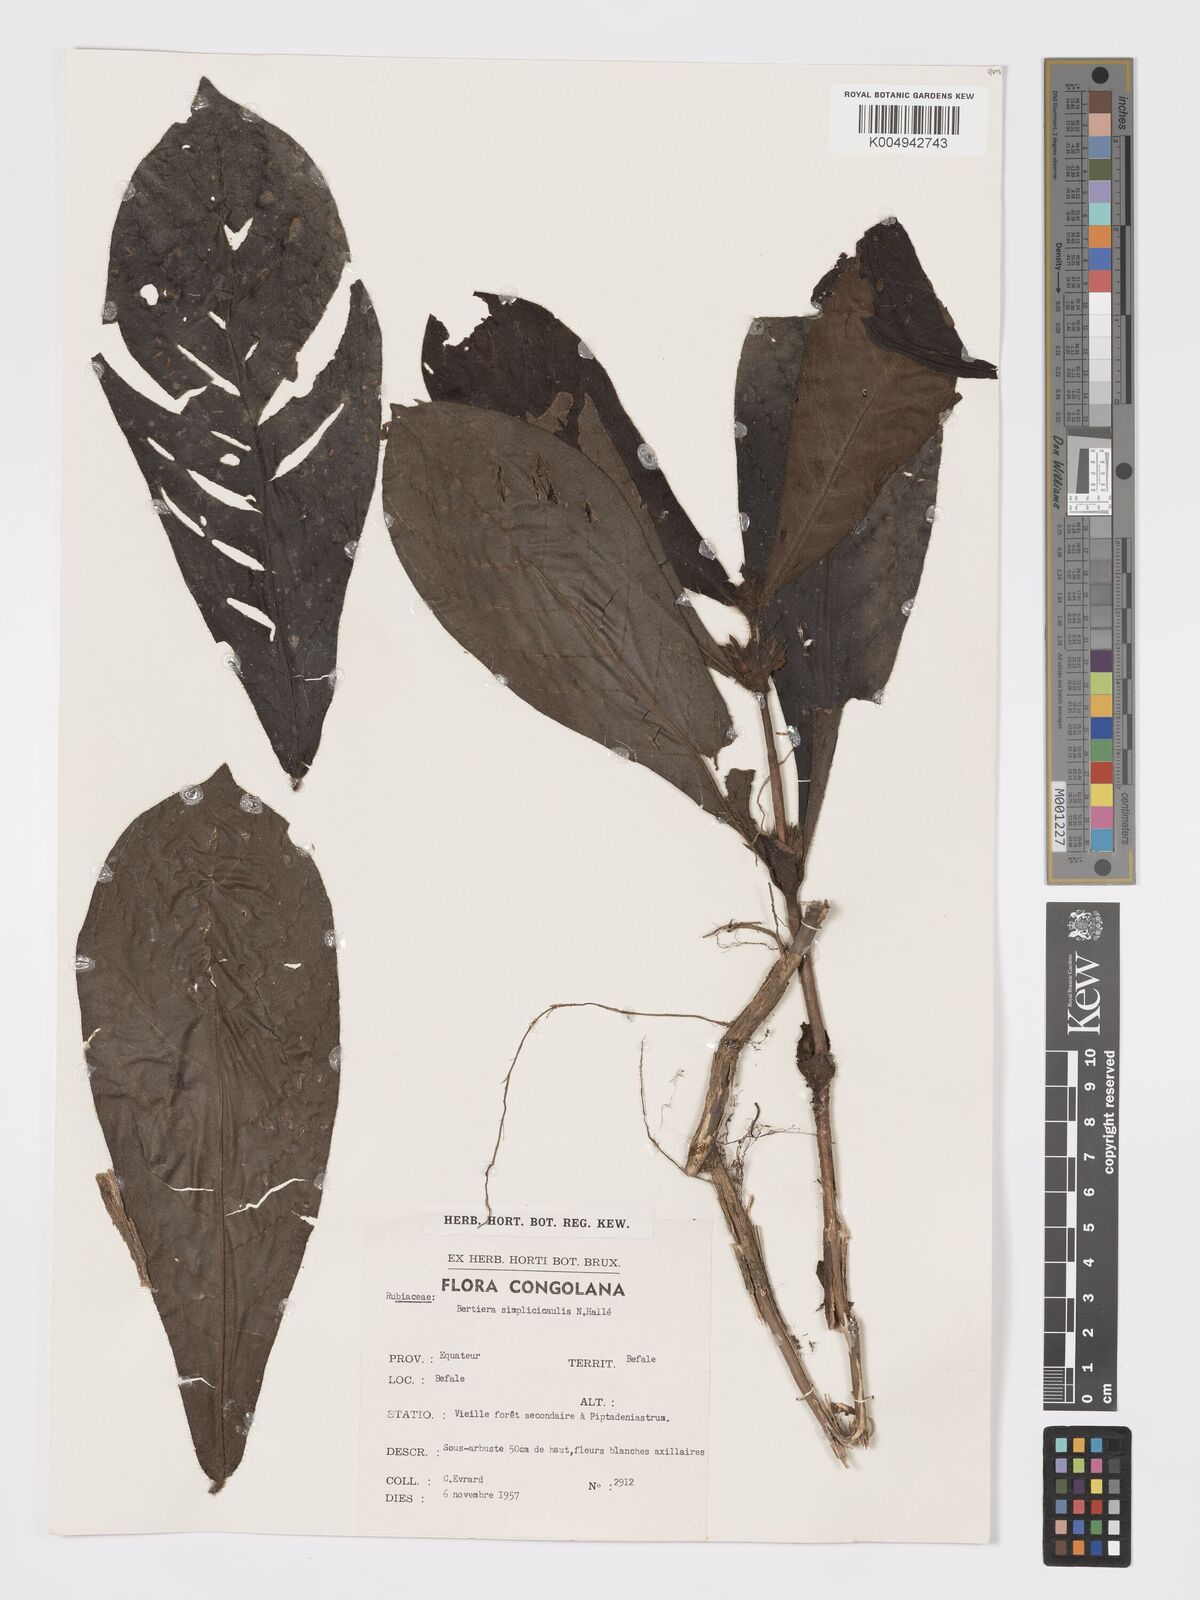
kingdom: Plantae
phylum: Tracheophyta
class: Magnoliopsida
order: Gentianales
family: Rubiaceae
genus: Bertiera
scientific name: Bertiera bicarpellata
